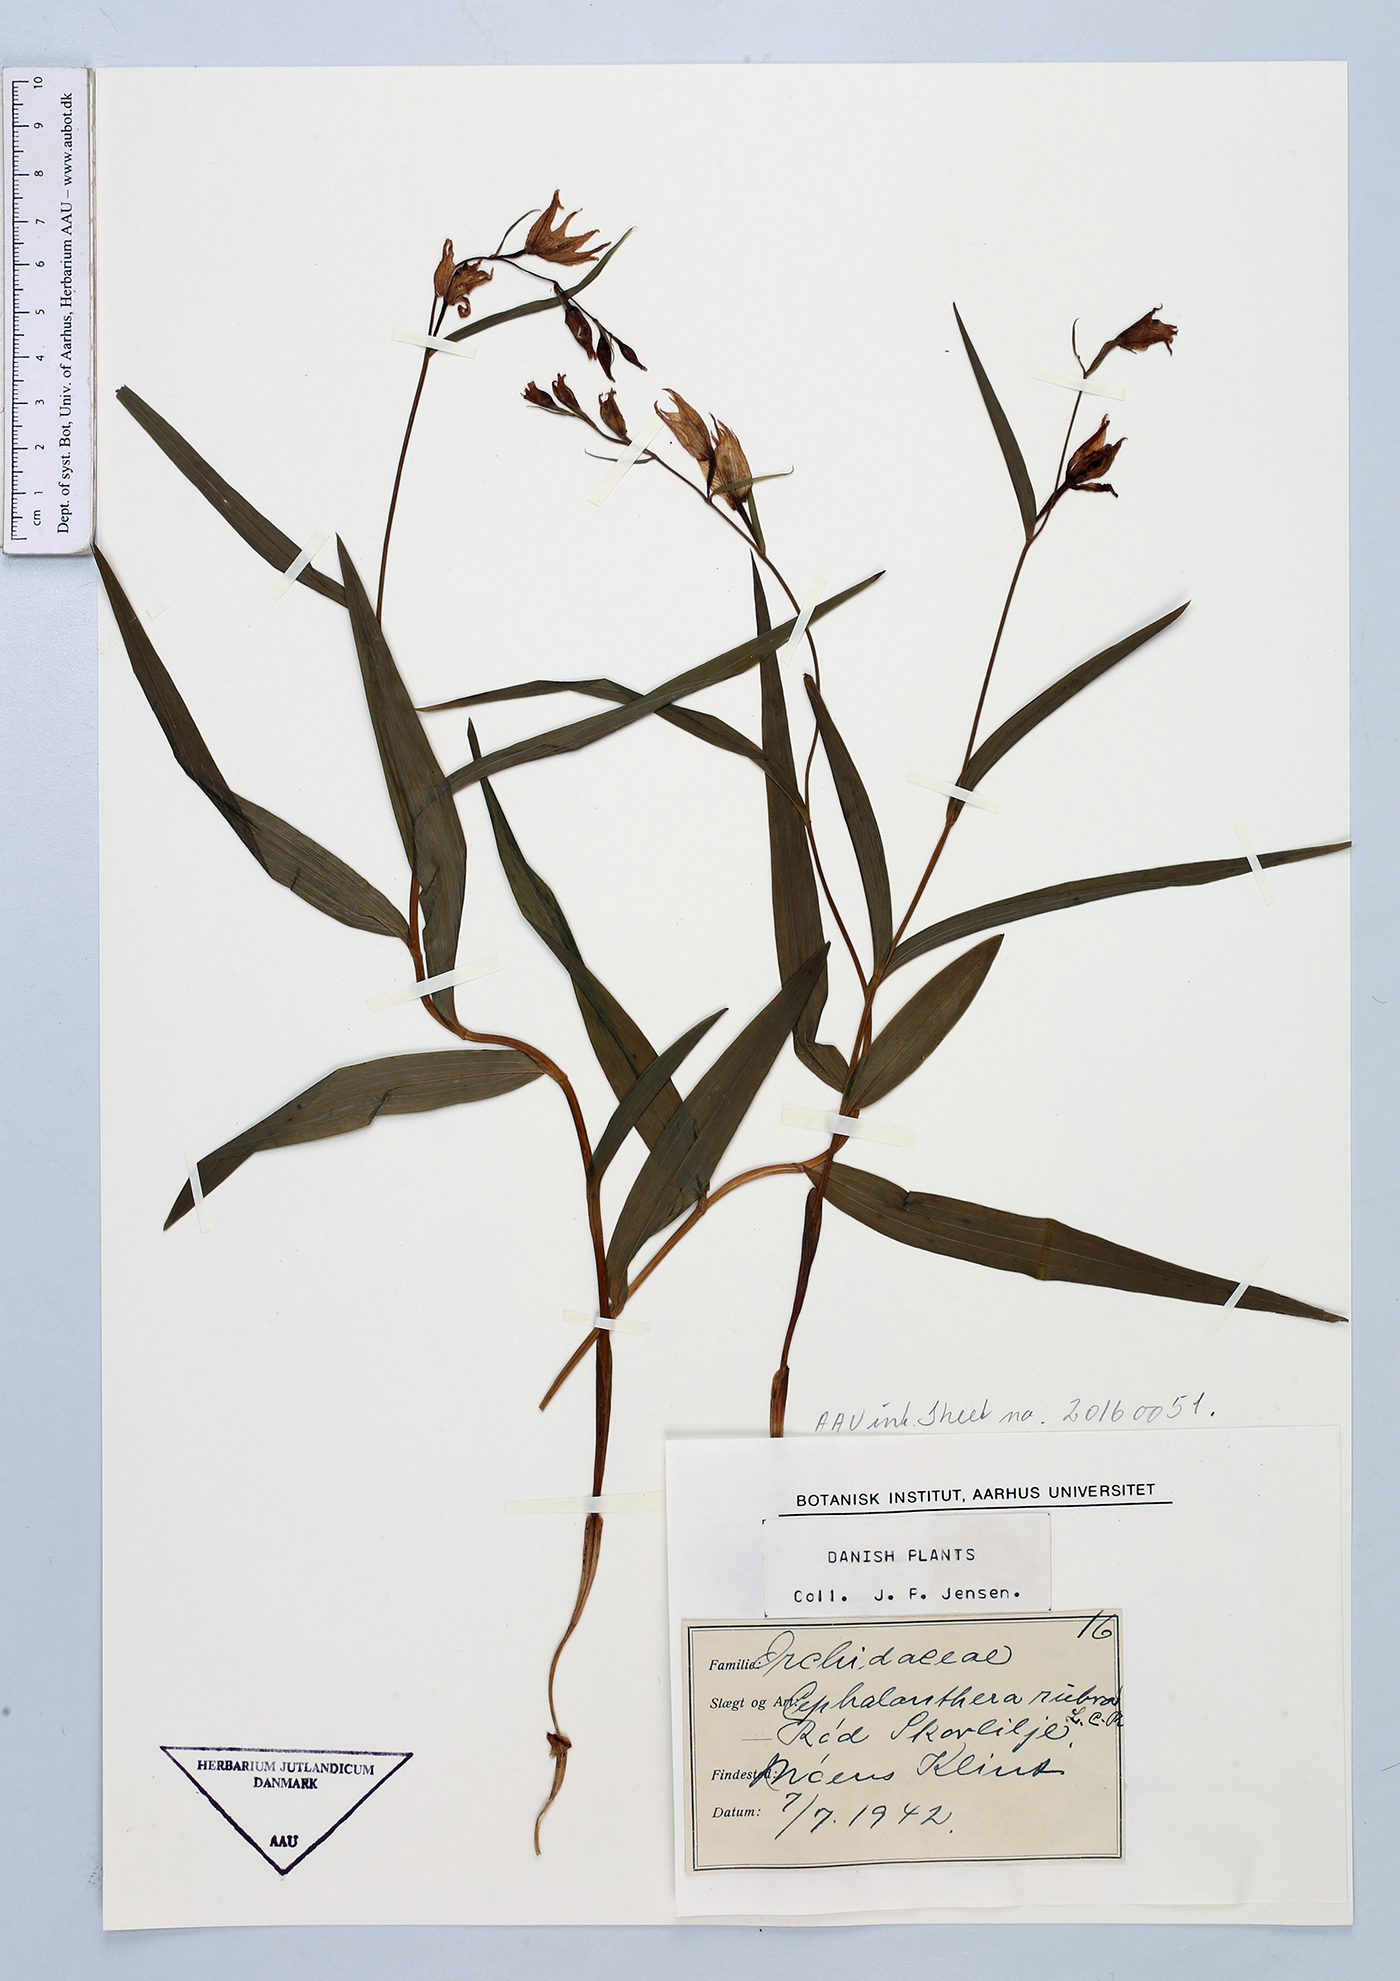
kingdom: Plantae
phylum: Tracheophyta
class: Liliopsida
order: Asparagales
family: Orchidaceae
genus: Cephalanthera
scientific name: Cephalanthera rubra
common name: Red helleborine
